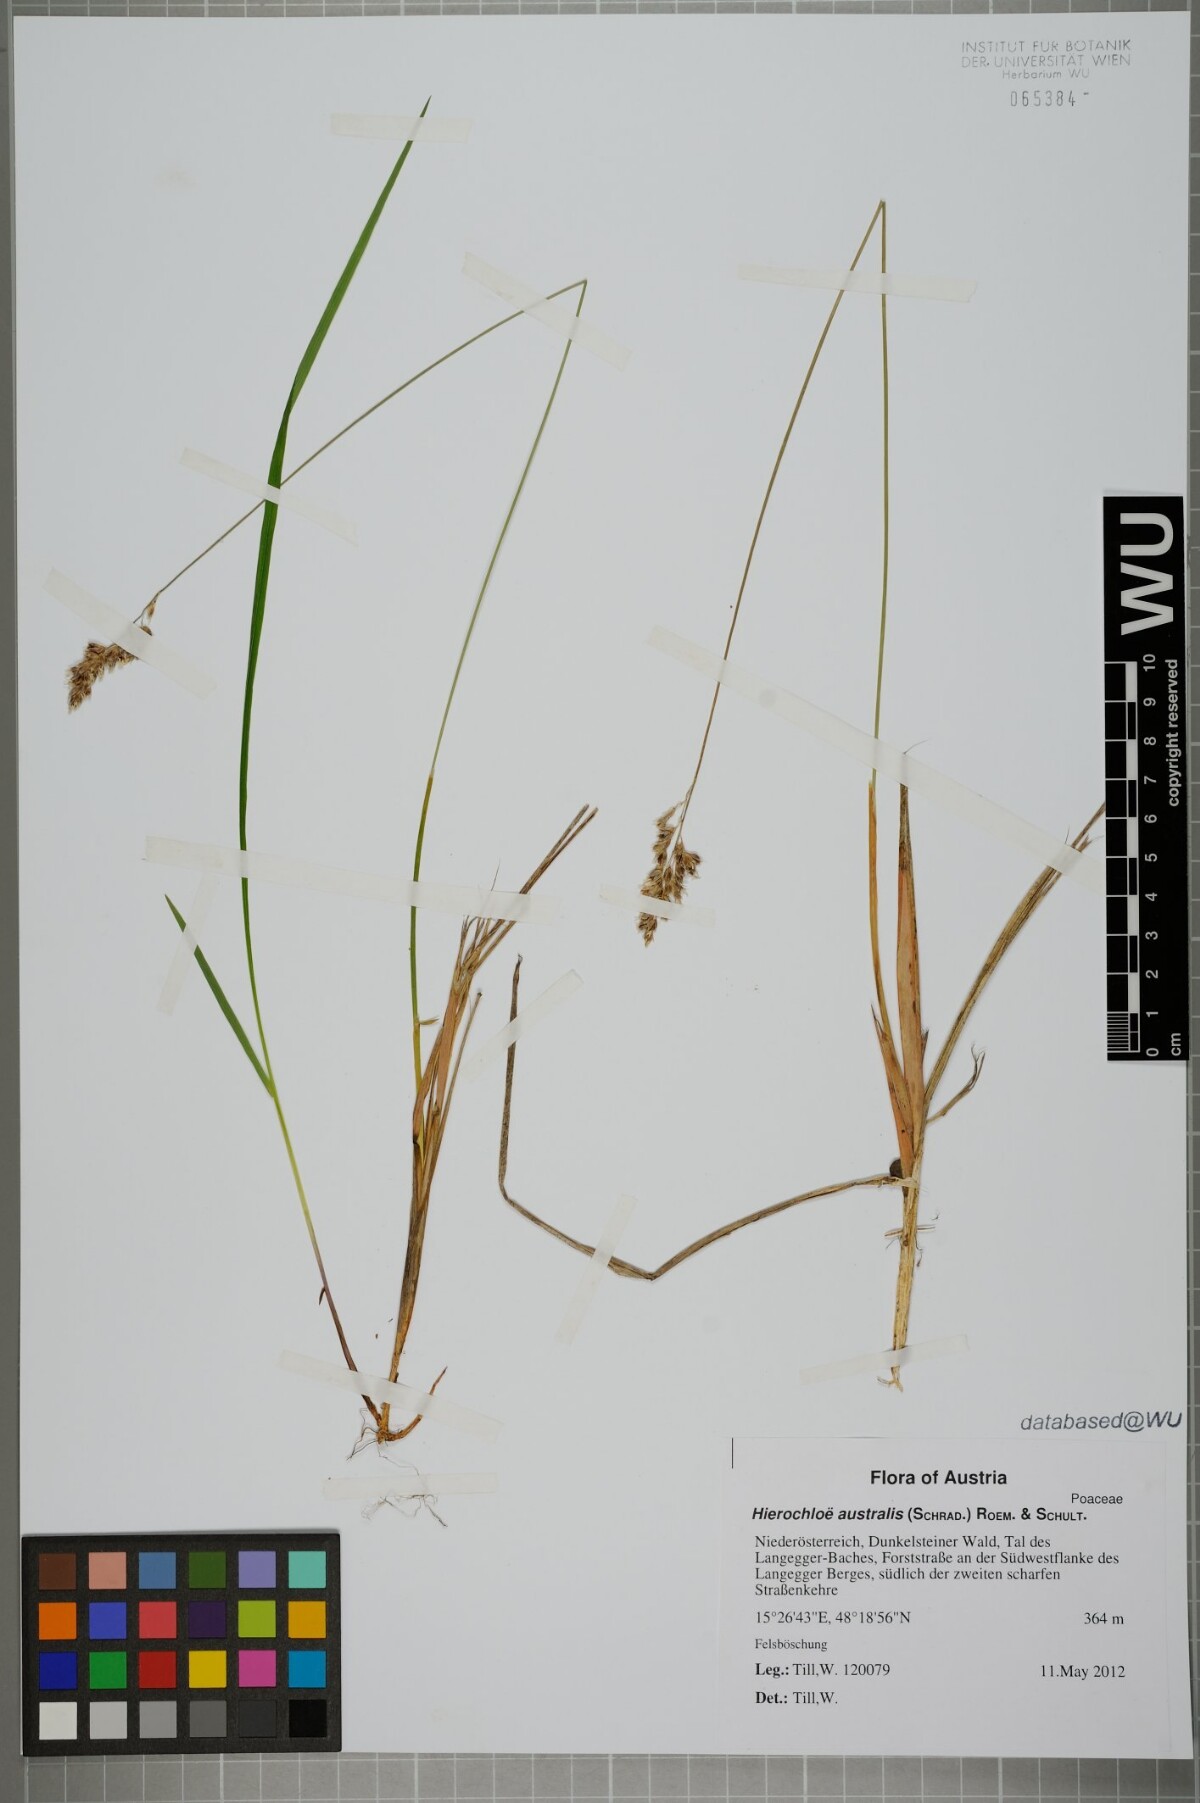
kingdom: Plantae
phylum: Tracheophyta
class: Liliopsida
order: Poales
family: Poaceae
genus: Anthoxanthum
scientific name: Anthoxanthum australe
